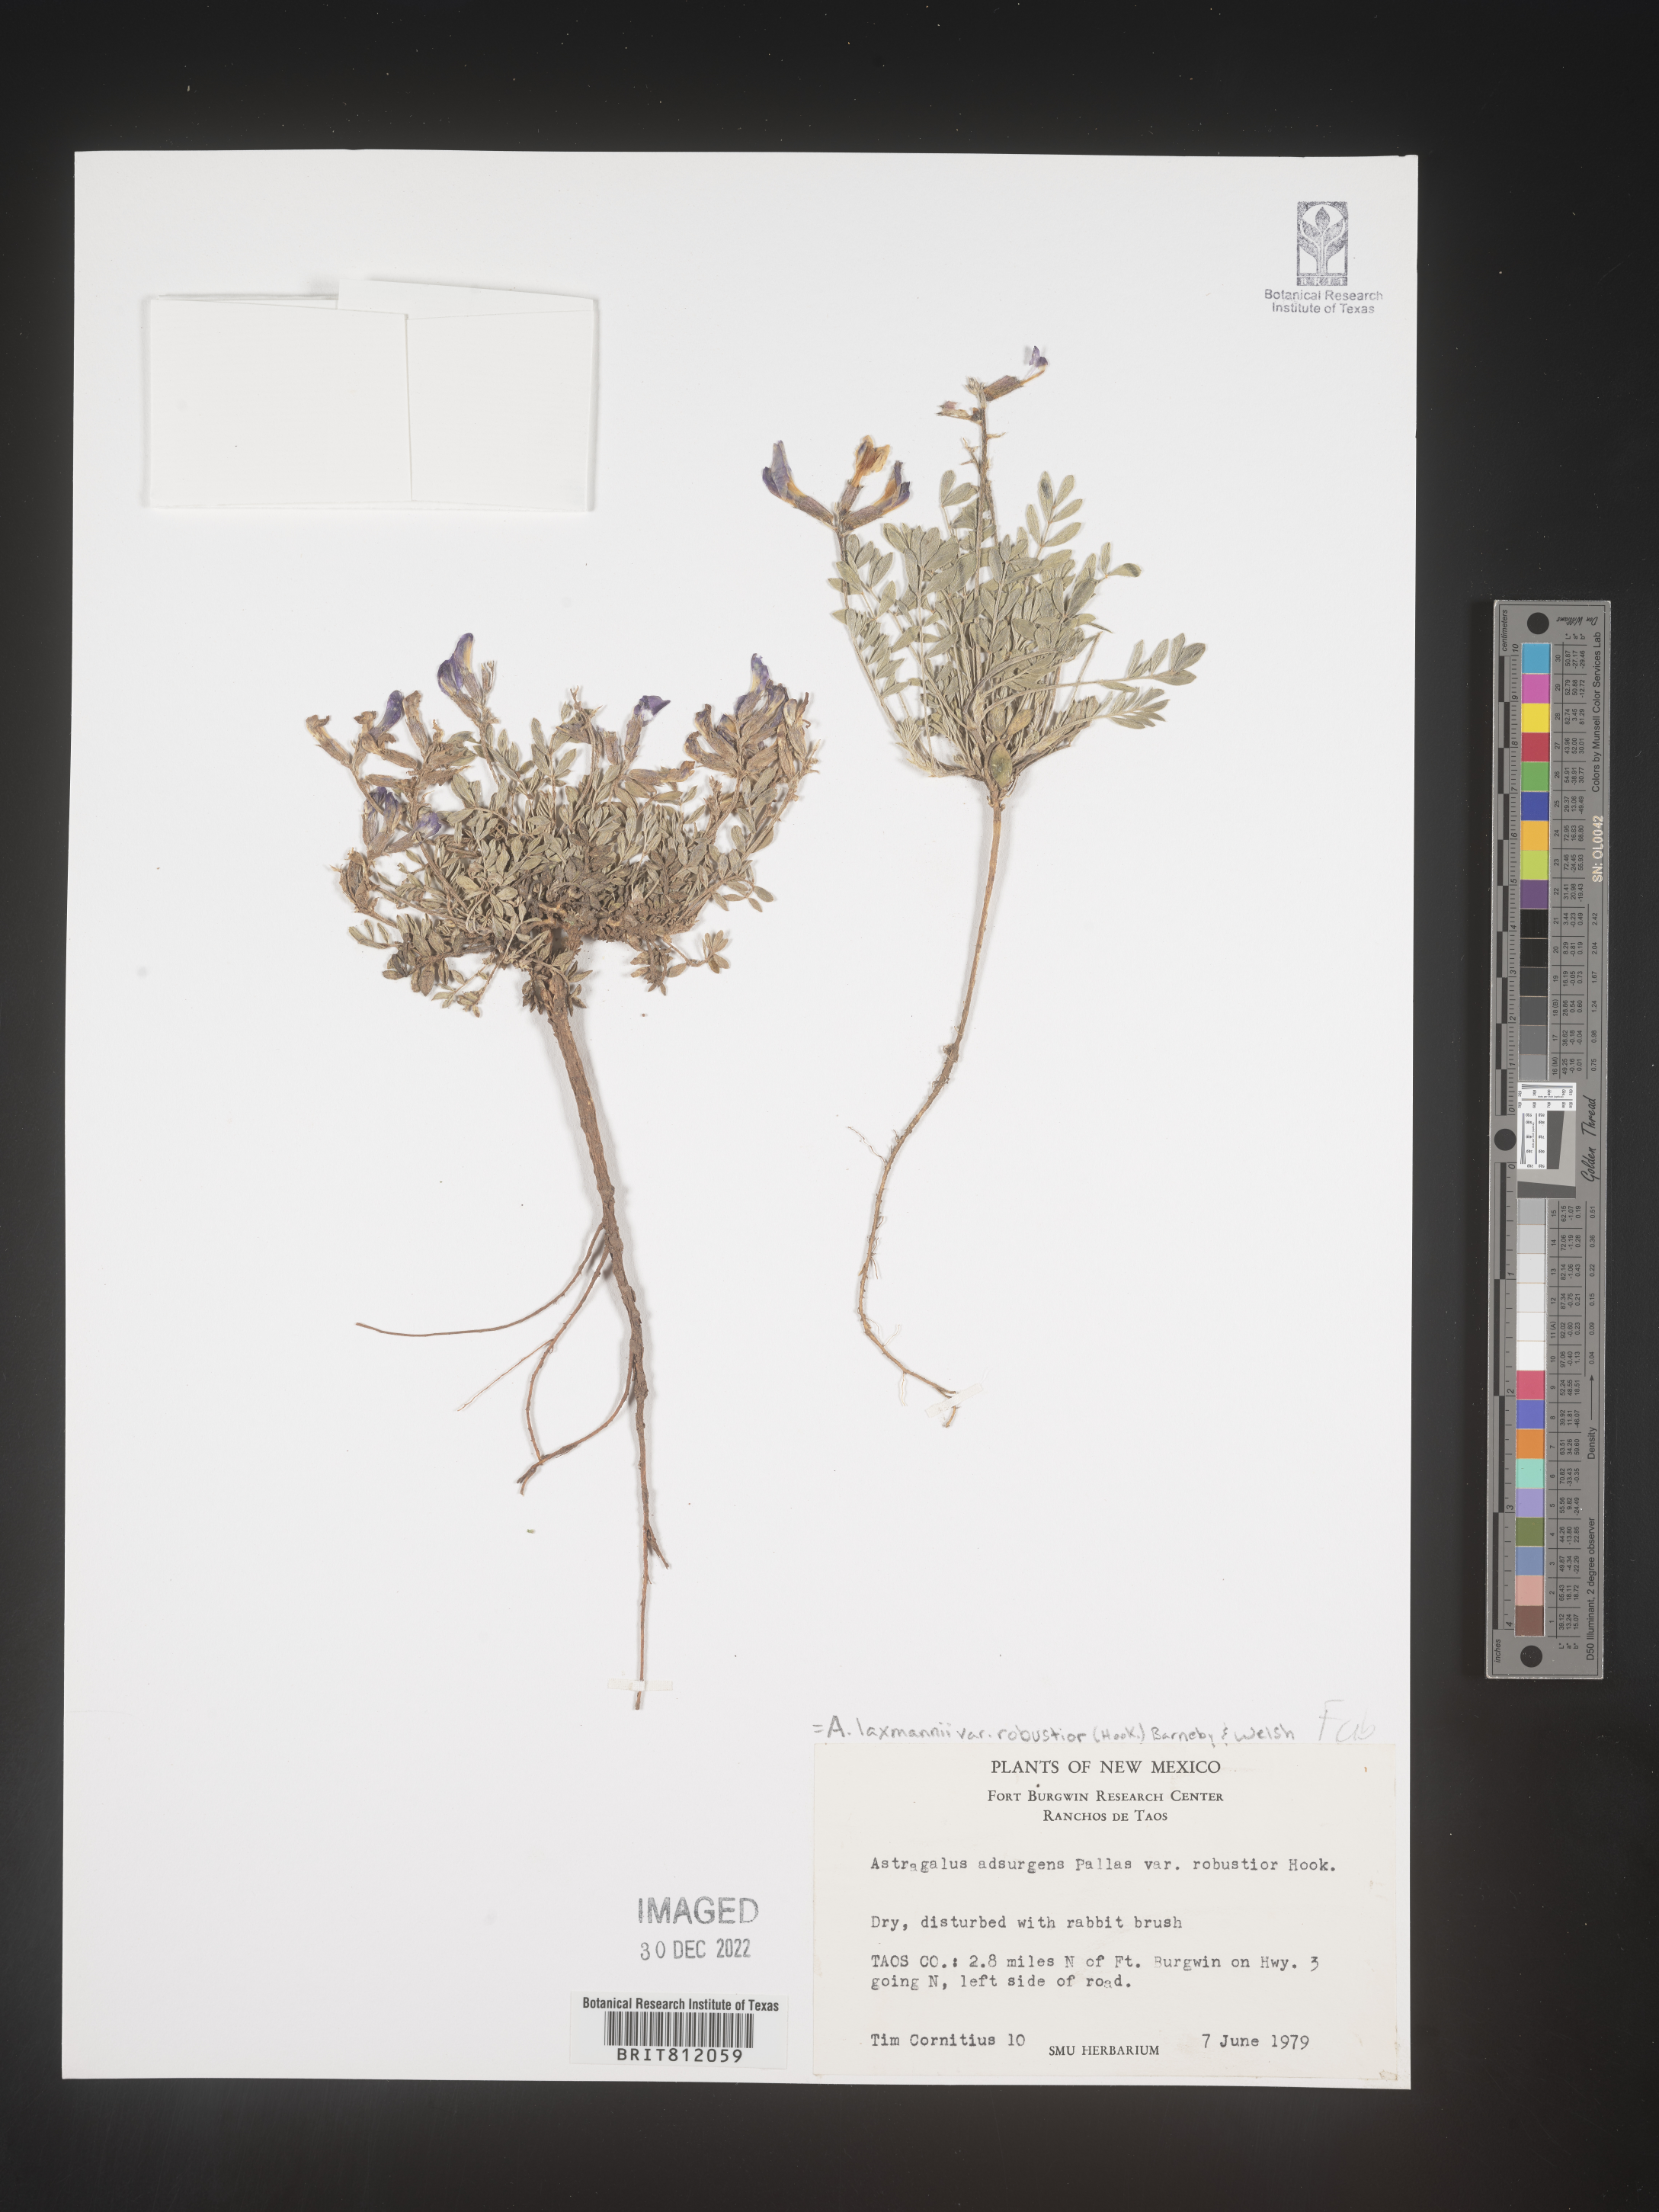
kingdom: Plantae
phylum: Tracheophyta
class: Magnoliopsida
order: Fabales
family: Fabaceae
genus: Astragalus
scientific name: Astragalus
